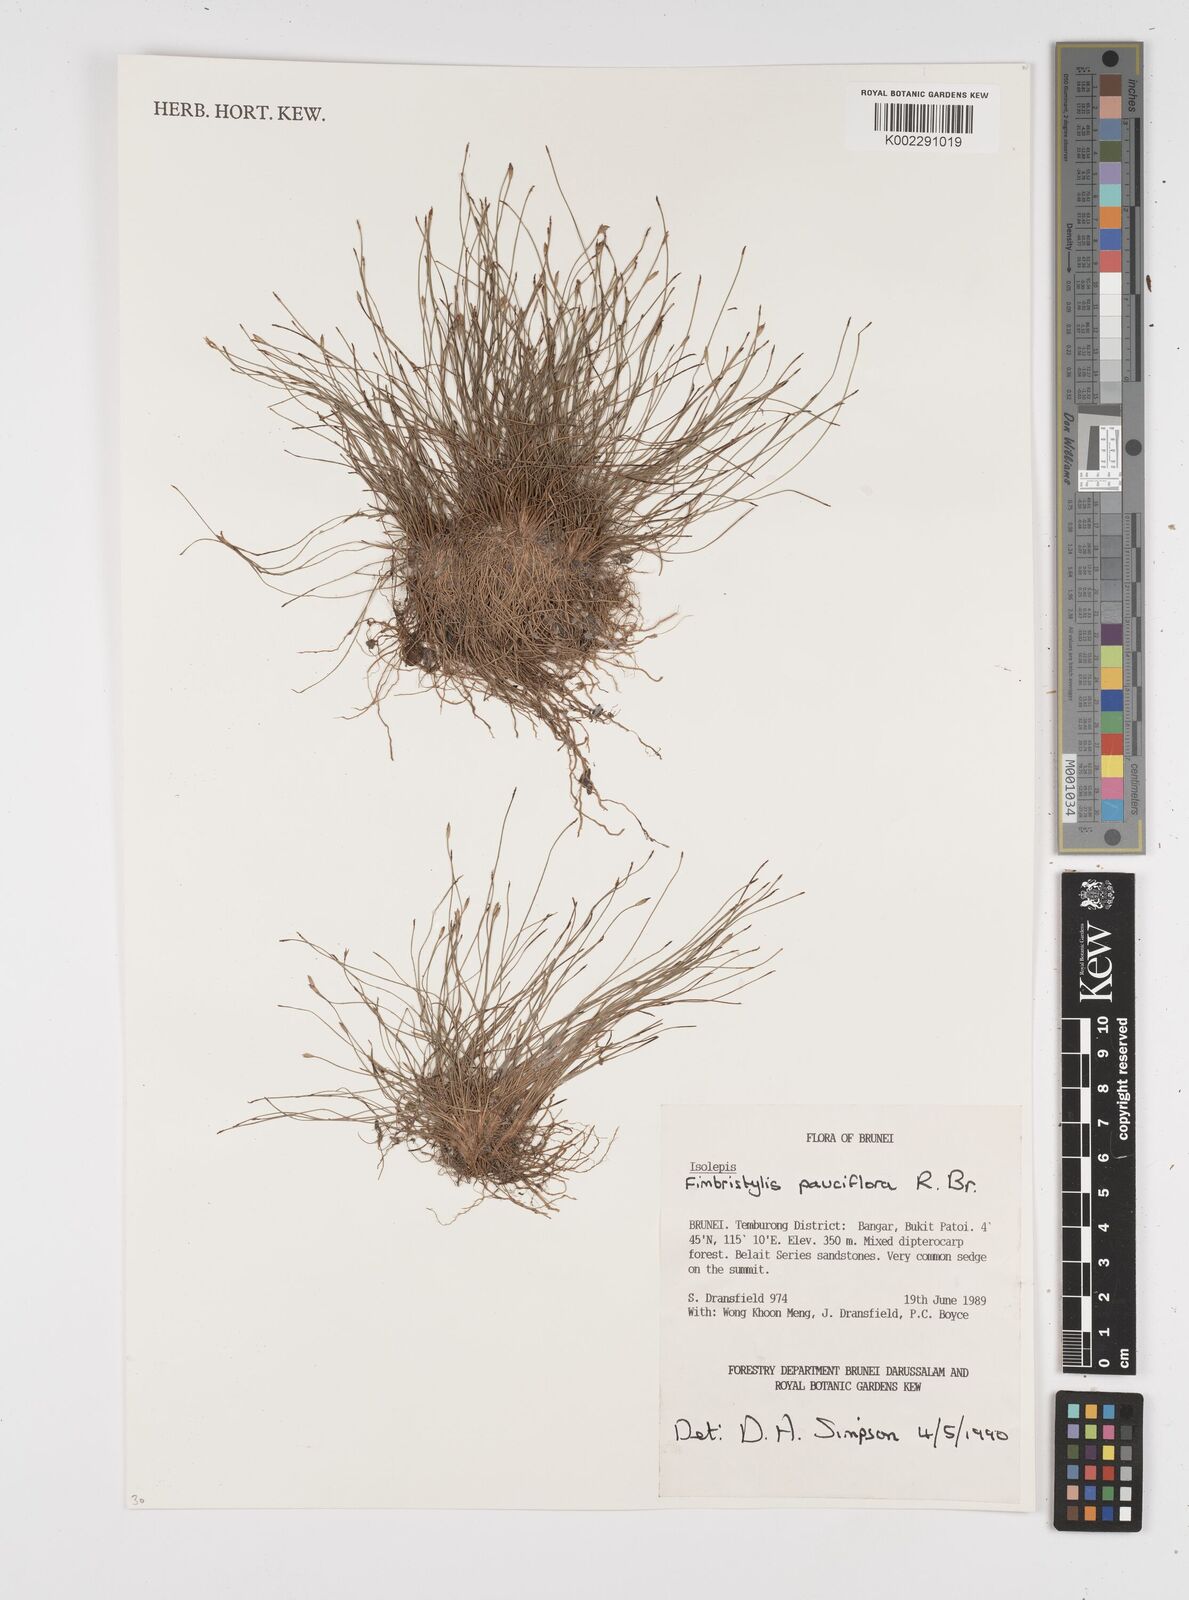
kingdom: Plantae
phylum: Tracheophyta
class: Liliopsida
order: Poales
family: Cyperaceae
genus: Fimbristylis
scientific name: Fimbristylis pauciflora
